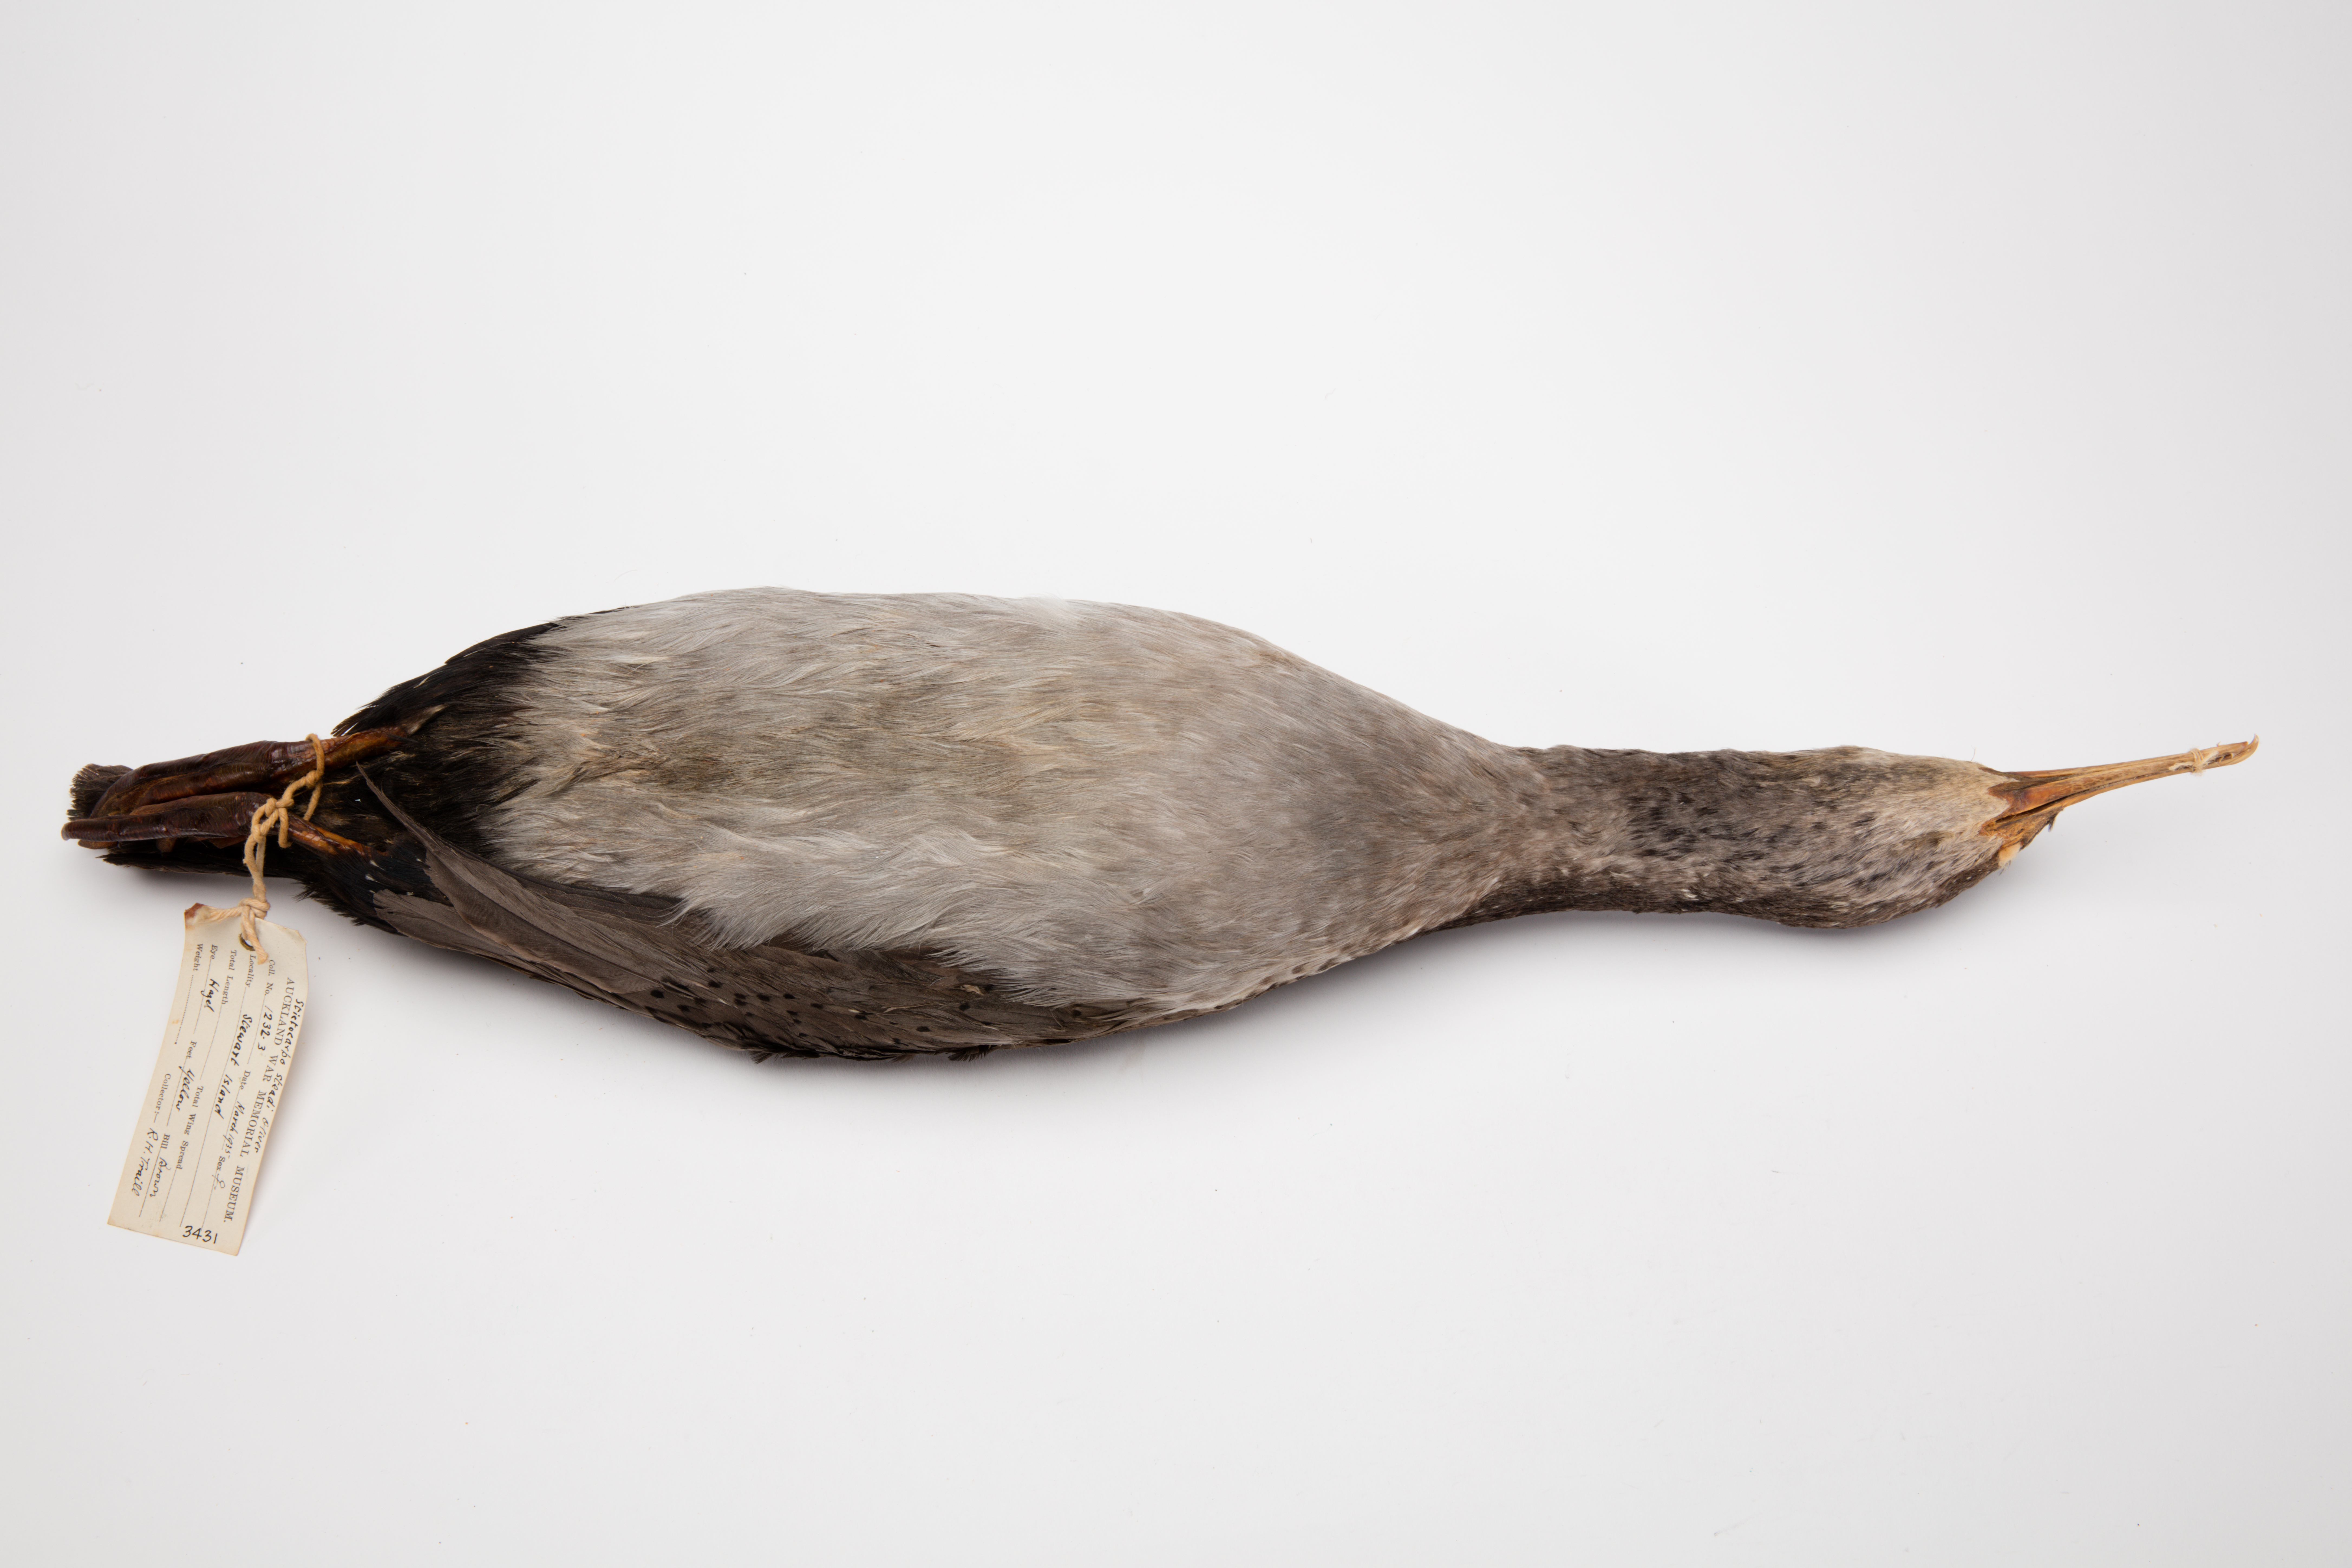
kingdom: Animalia
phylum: Chordata
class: Aves
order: Suliformes
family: Phalacrocoracidae
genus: Phalacrocorax
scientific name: Phalacrocorax punctatus
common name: Spotted shag
